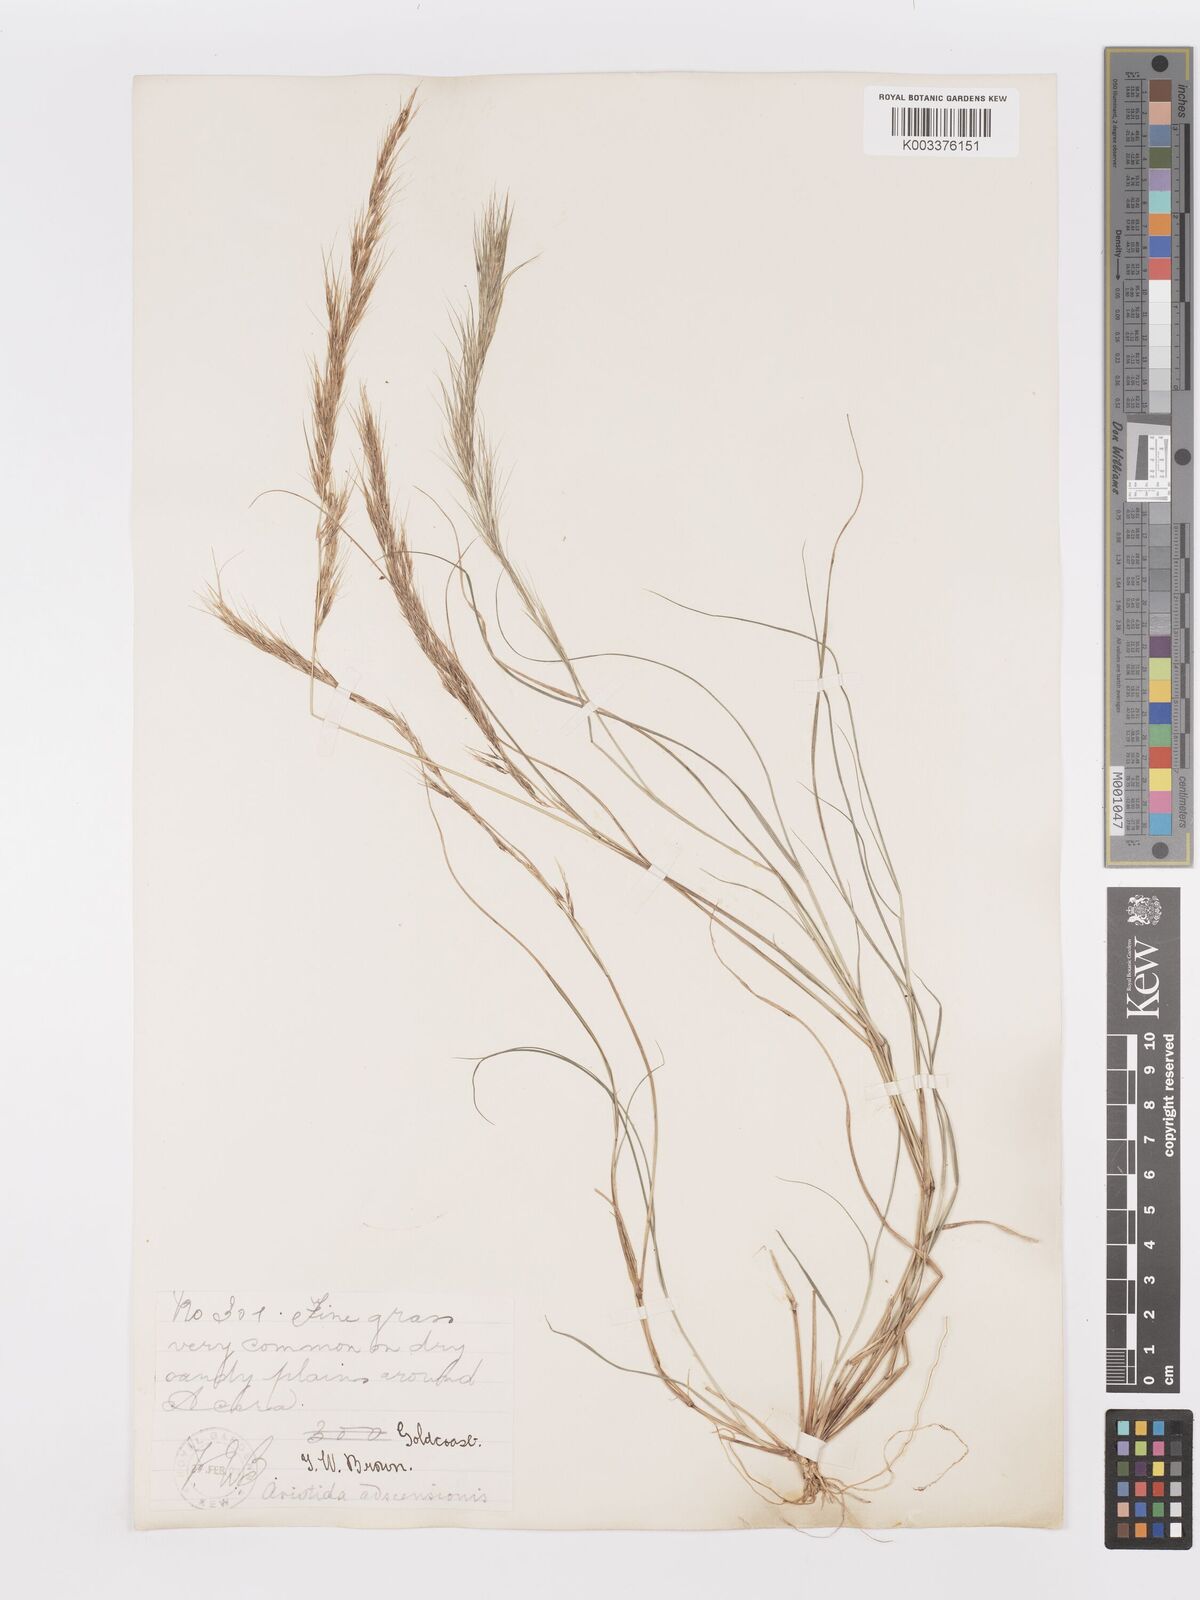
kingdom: Plantae
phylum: Tracheophyta
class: Liliopsida
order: Poales
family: Poaceae
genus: Aristida
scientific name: Aristida adscensionis
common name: Sixweeks threeawn
